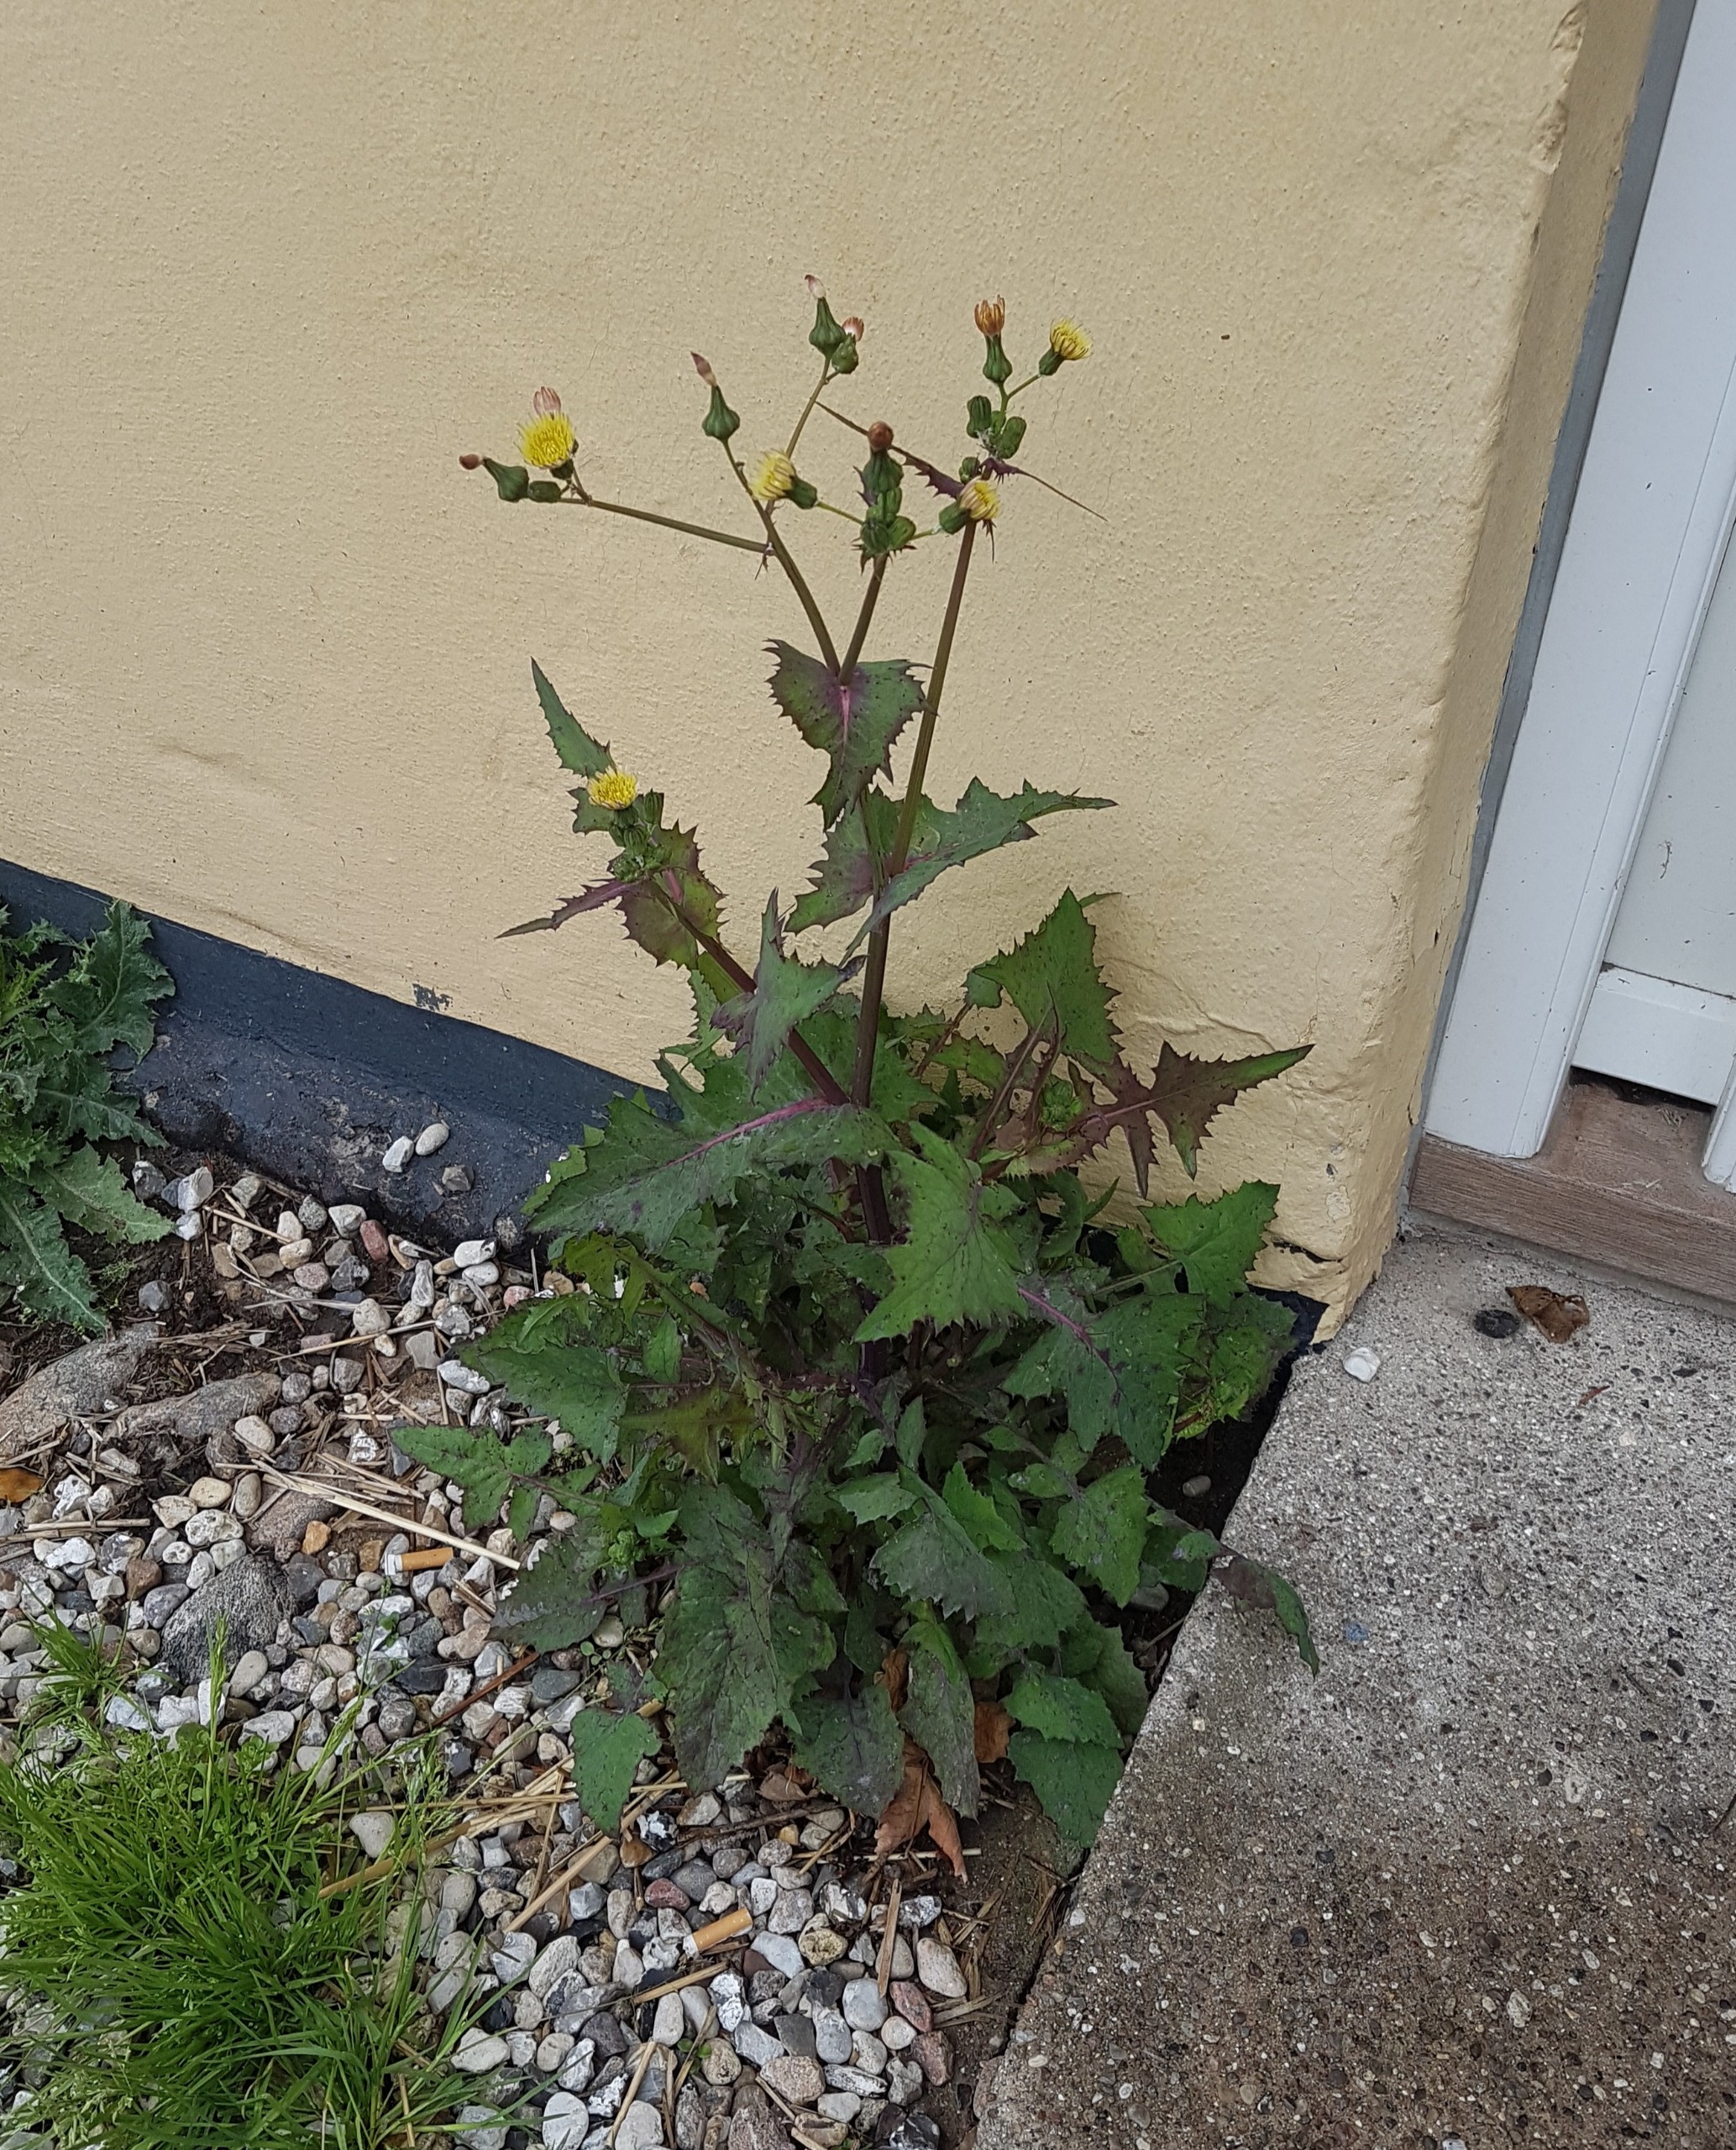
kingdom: Plantae
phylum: Tracheophyta
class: Magnoliopsida
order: Asterales
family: Asteraceae
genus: Sonchus
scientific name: Sonchus oleraceus
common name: Almindelig svinemælk
